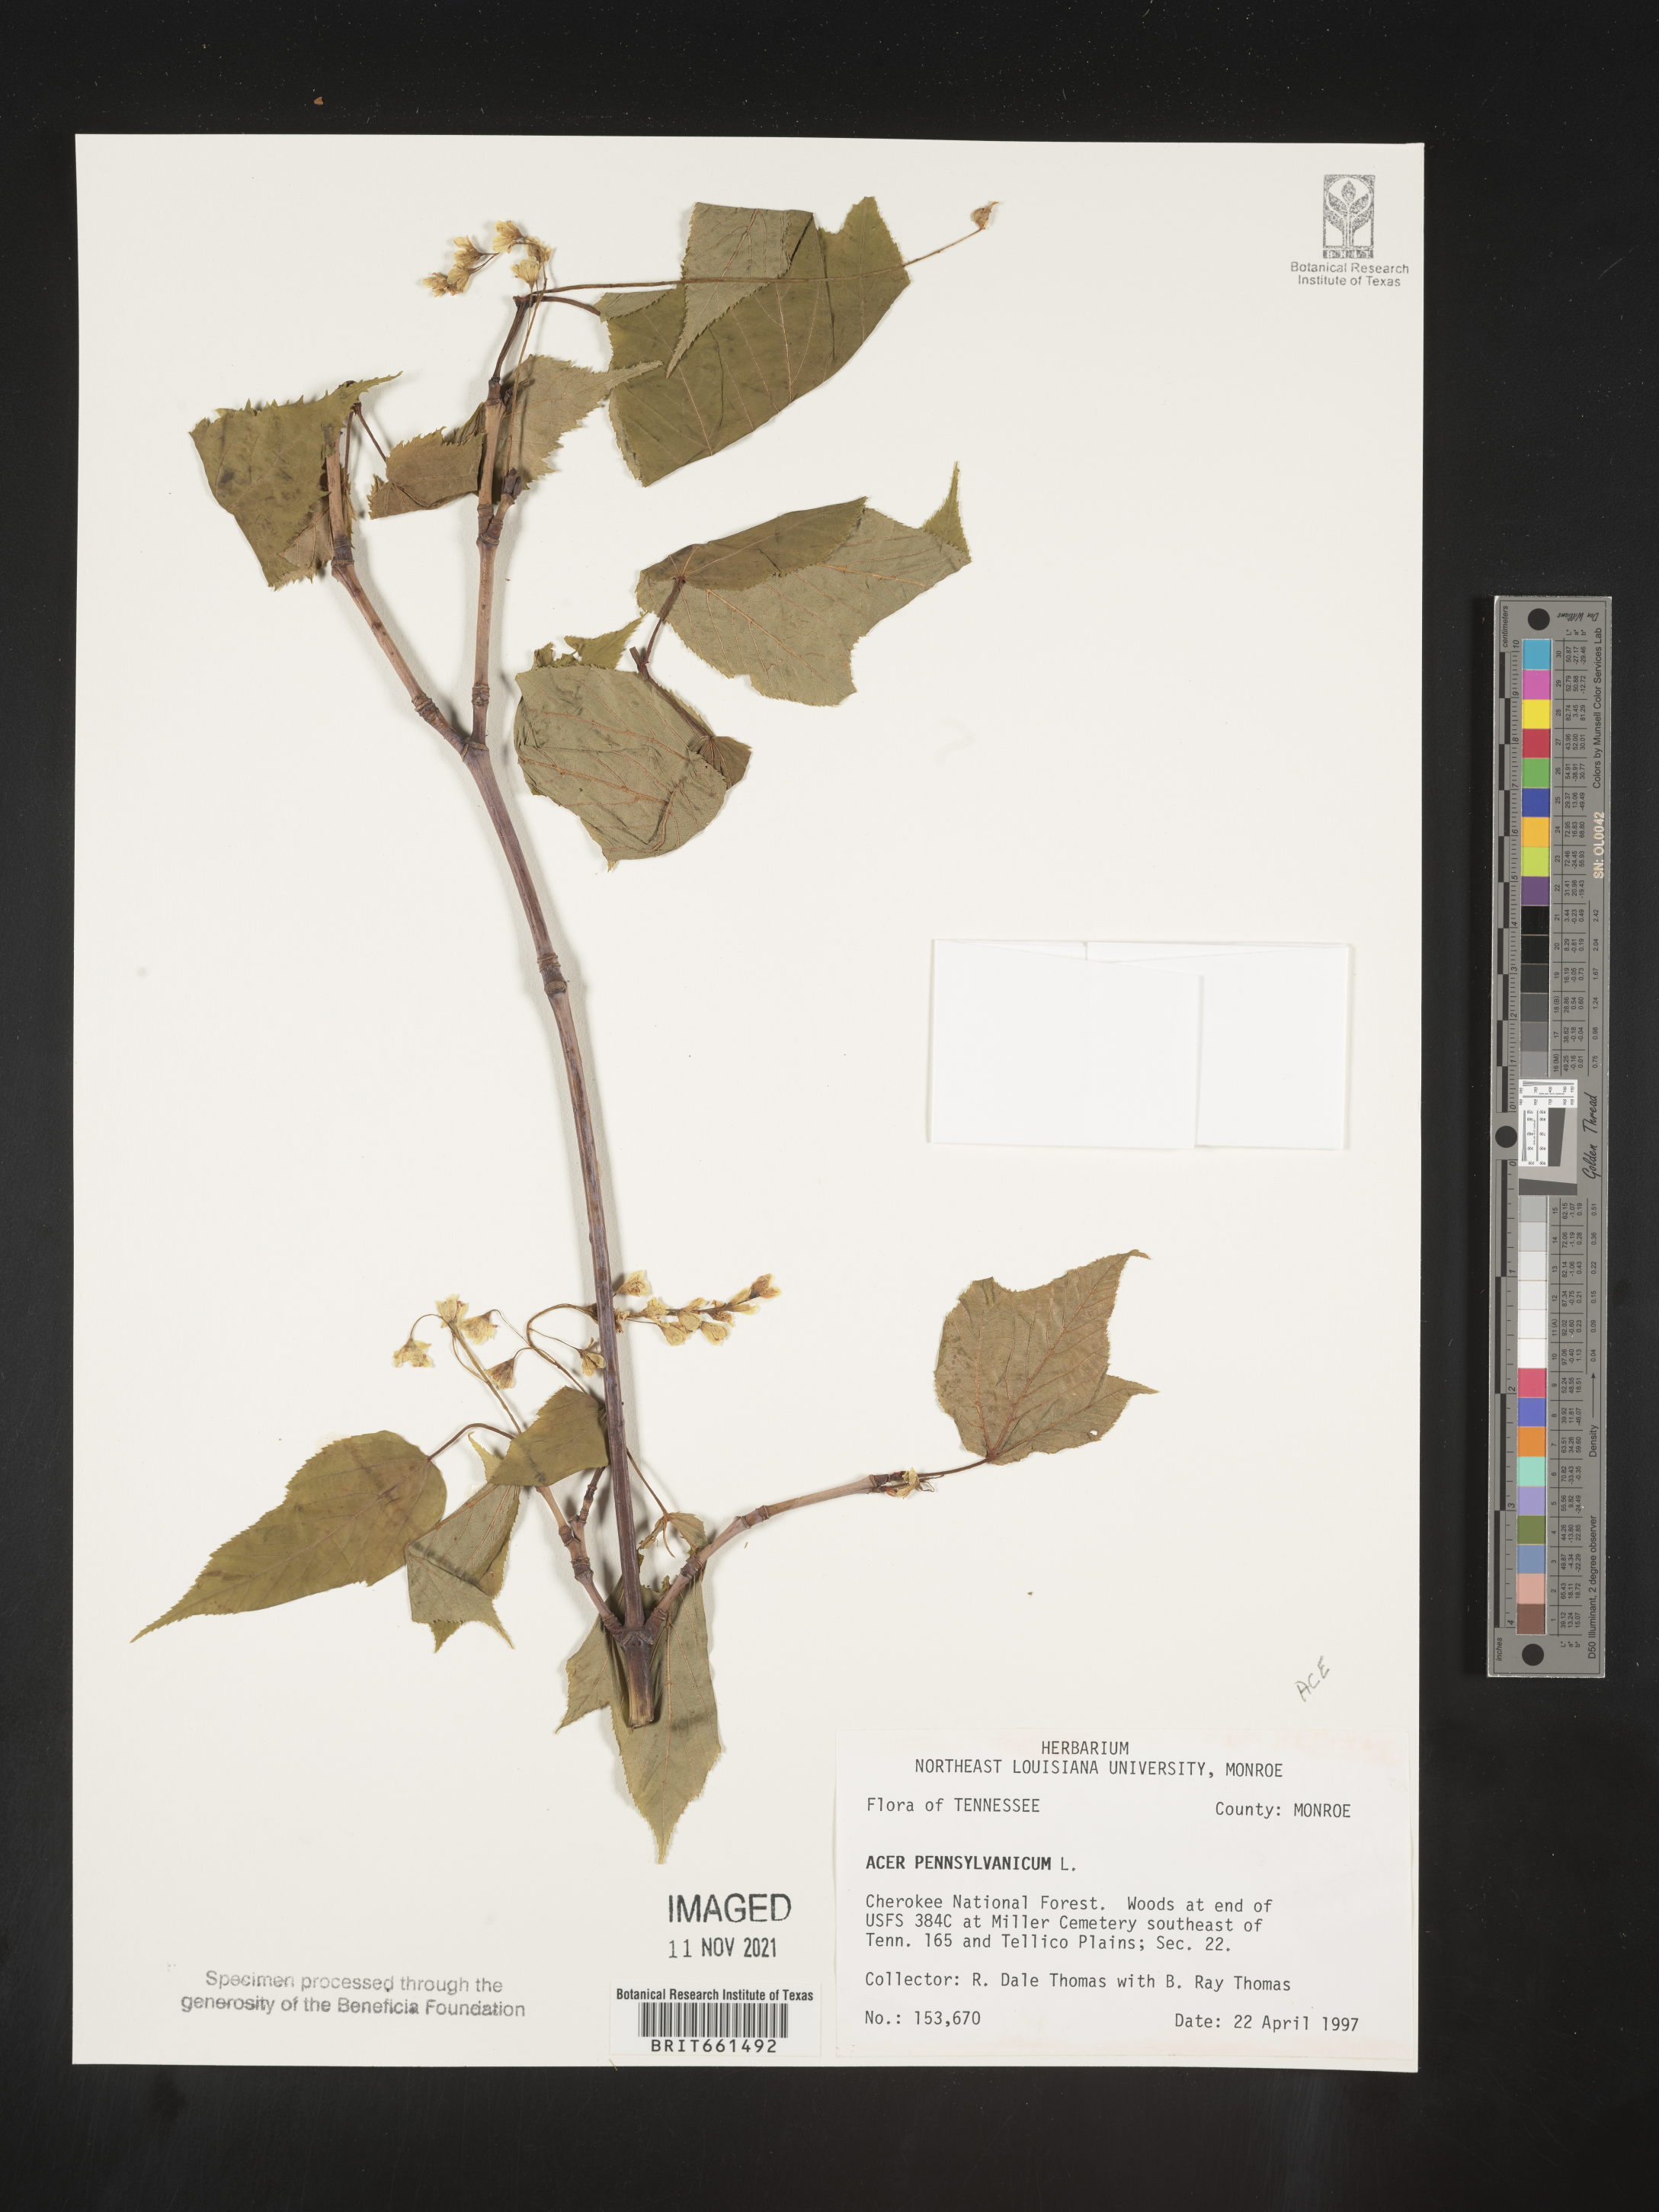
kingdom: Plantae
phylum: Tracheophyta
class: Magnoliopsida
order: Sapindales
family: Sapindaceae
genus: Acer
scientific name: Acer pensylvanicum
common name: Moosewood
